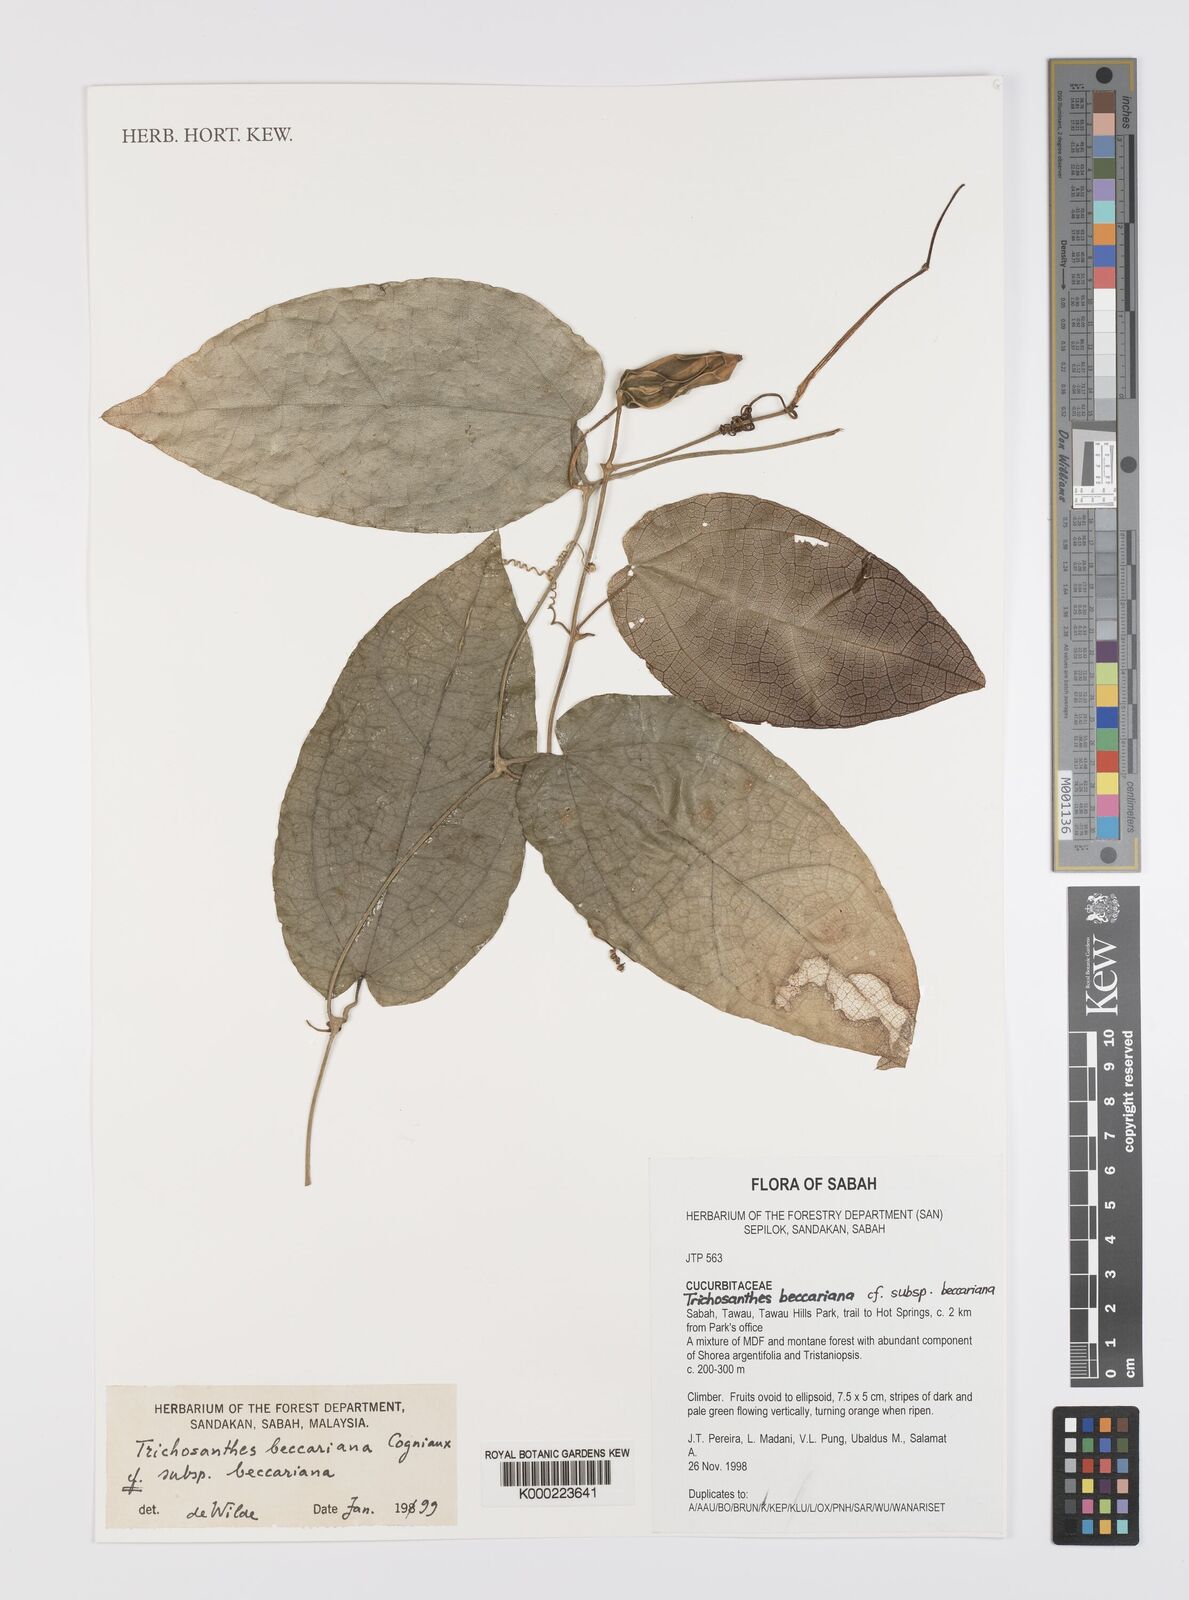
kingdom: Plantae
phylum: Tracheophyta
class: Magnoliopsida
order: Cucurbitales
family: Cucurbitaceae
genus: Trichosanthes
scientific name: Trichosanthes beccariana
